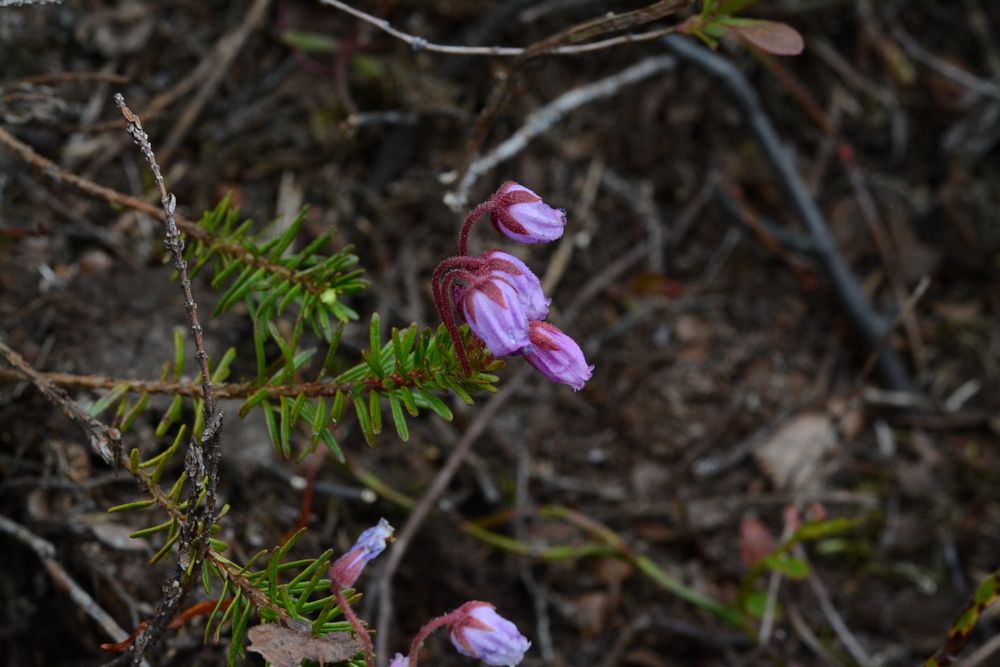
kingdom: Plantae
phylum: Tracheophyta
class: Magnoliopsida
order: Ericales
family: Ericaceae
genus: Phyllodoce
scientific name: Phyllodoce caerulea
